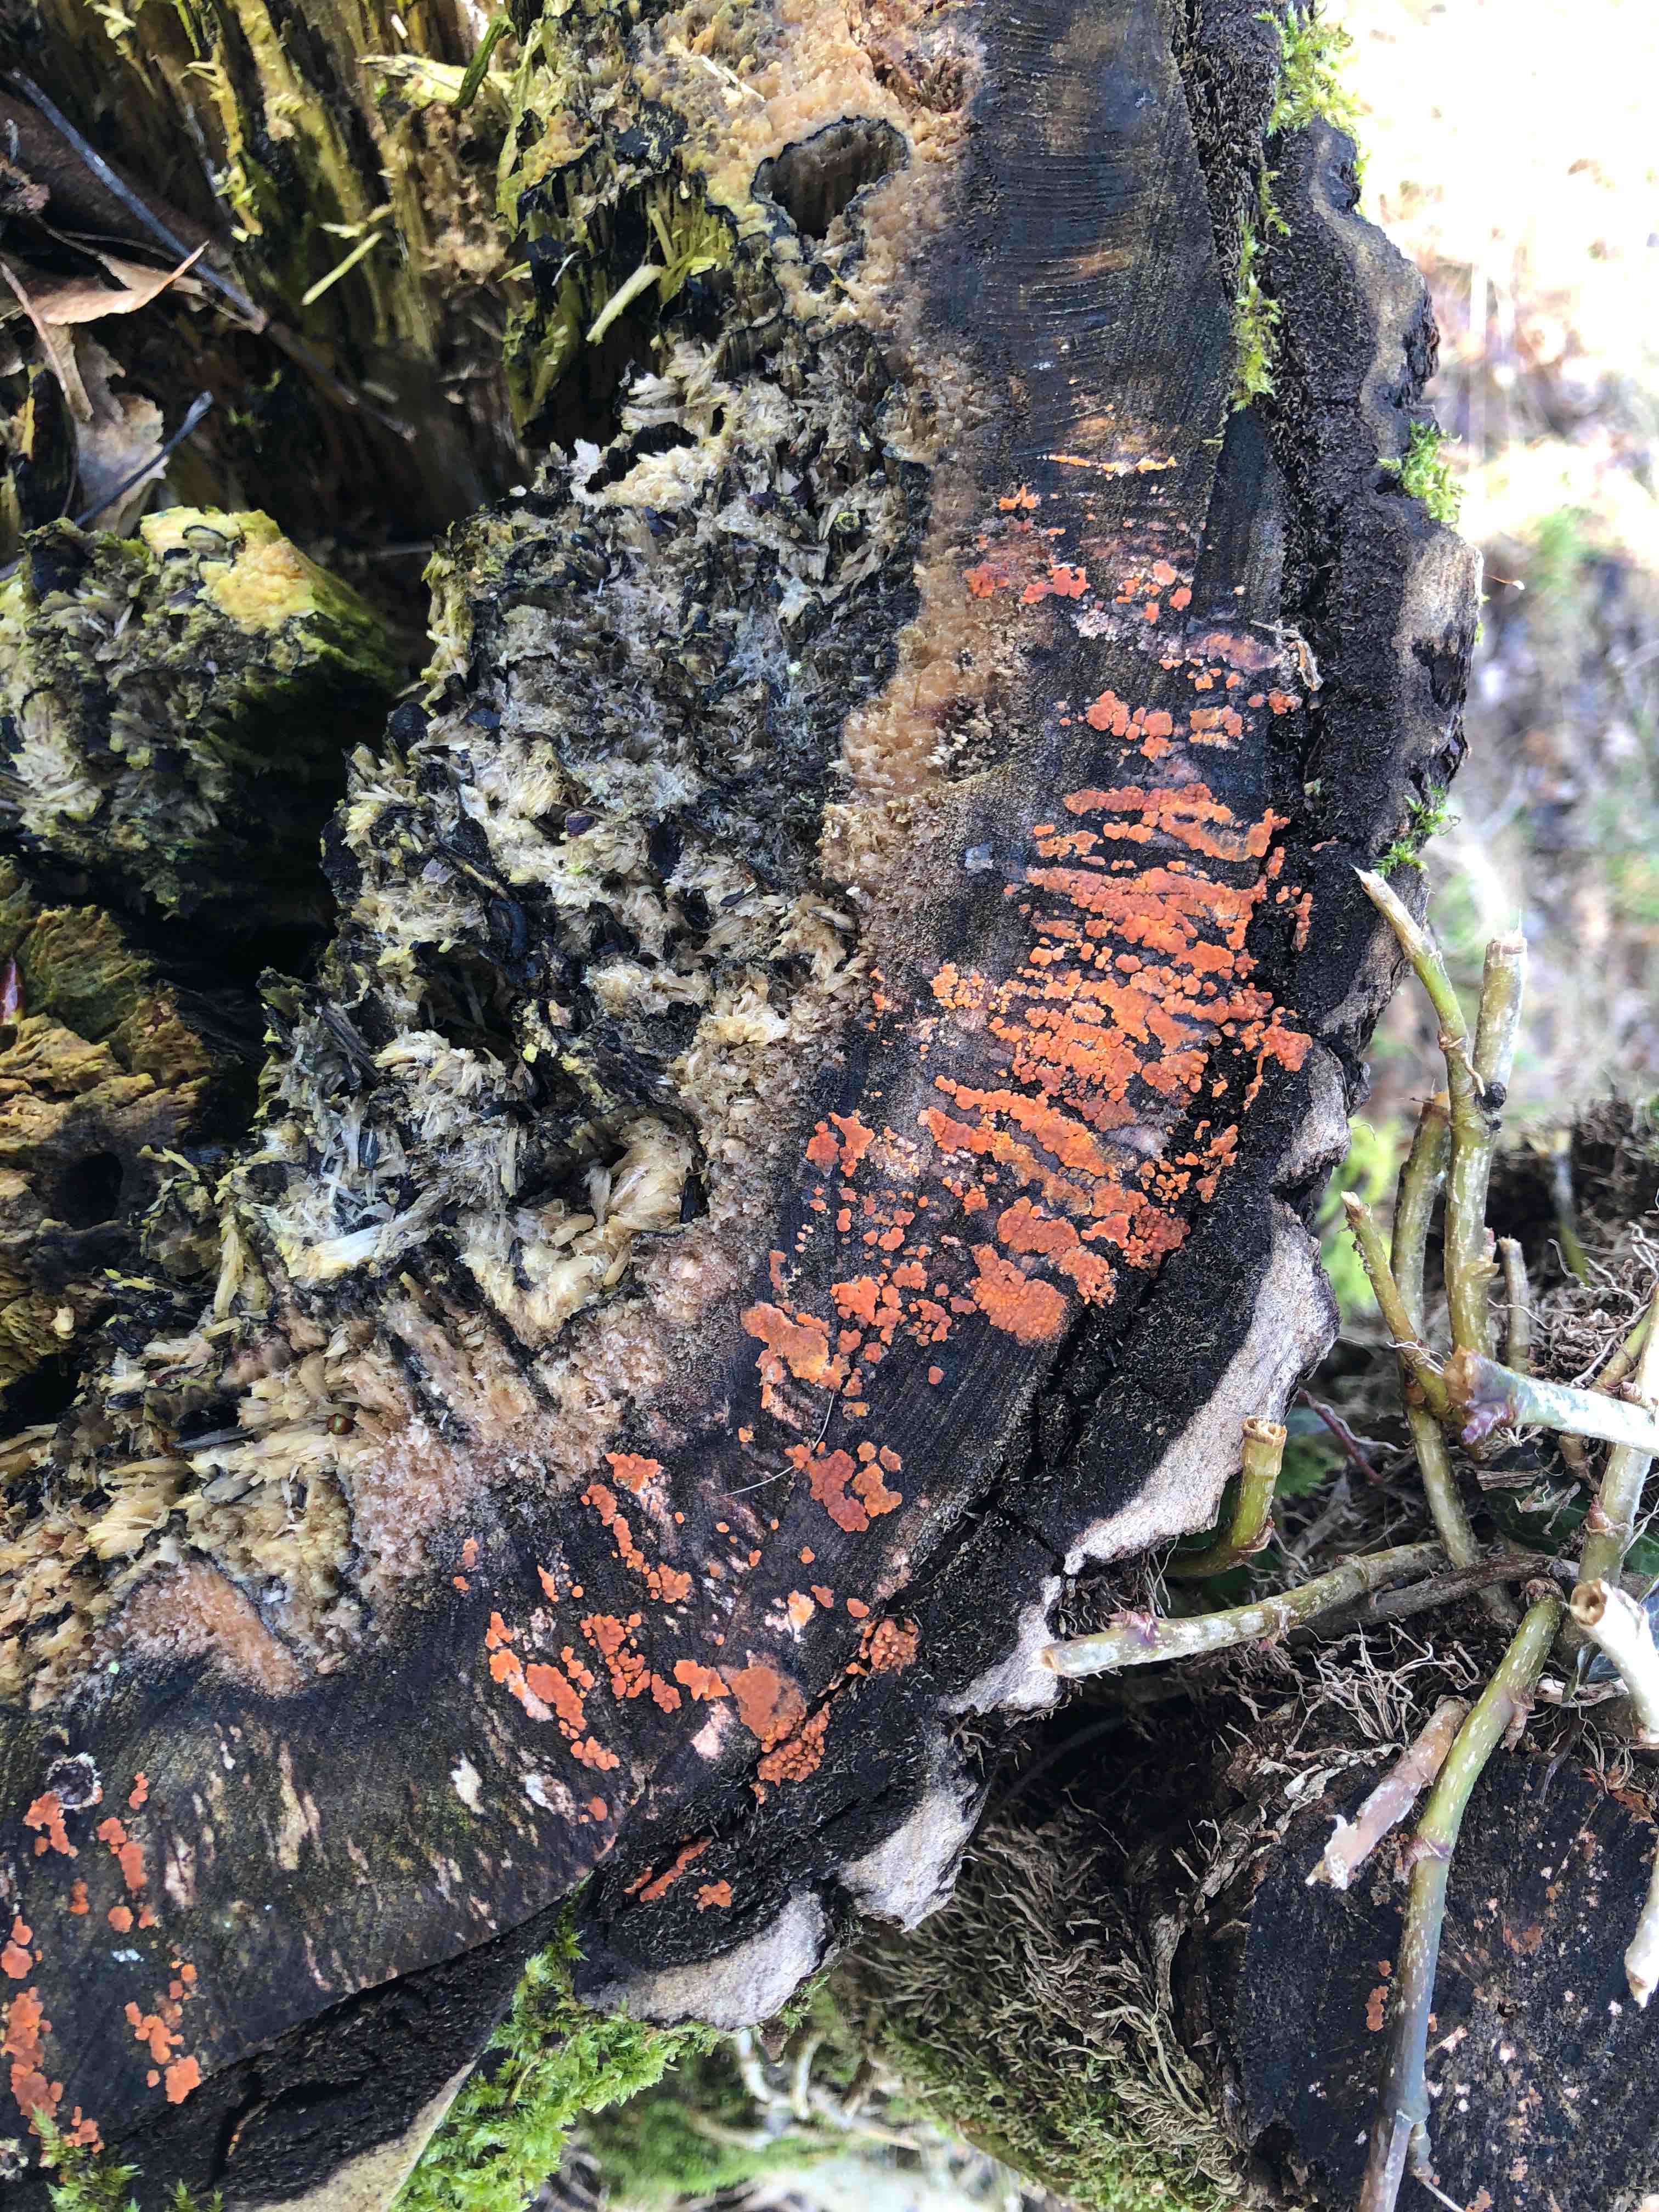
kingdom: Fungi
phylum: Basidiomycota
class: Agaricomycetes
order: Russulales
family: Peniophoraceae
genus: Peniophora
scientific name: Peniophora incarnata
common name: laksefarvet voksskind
